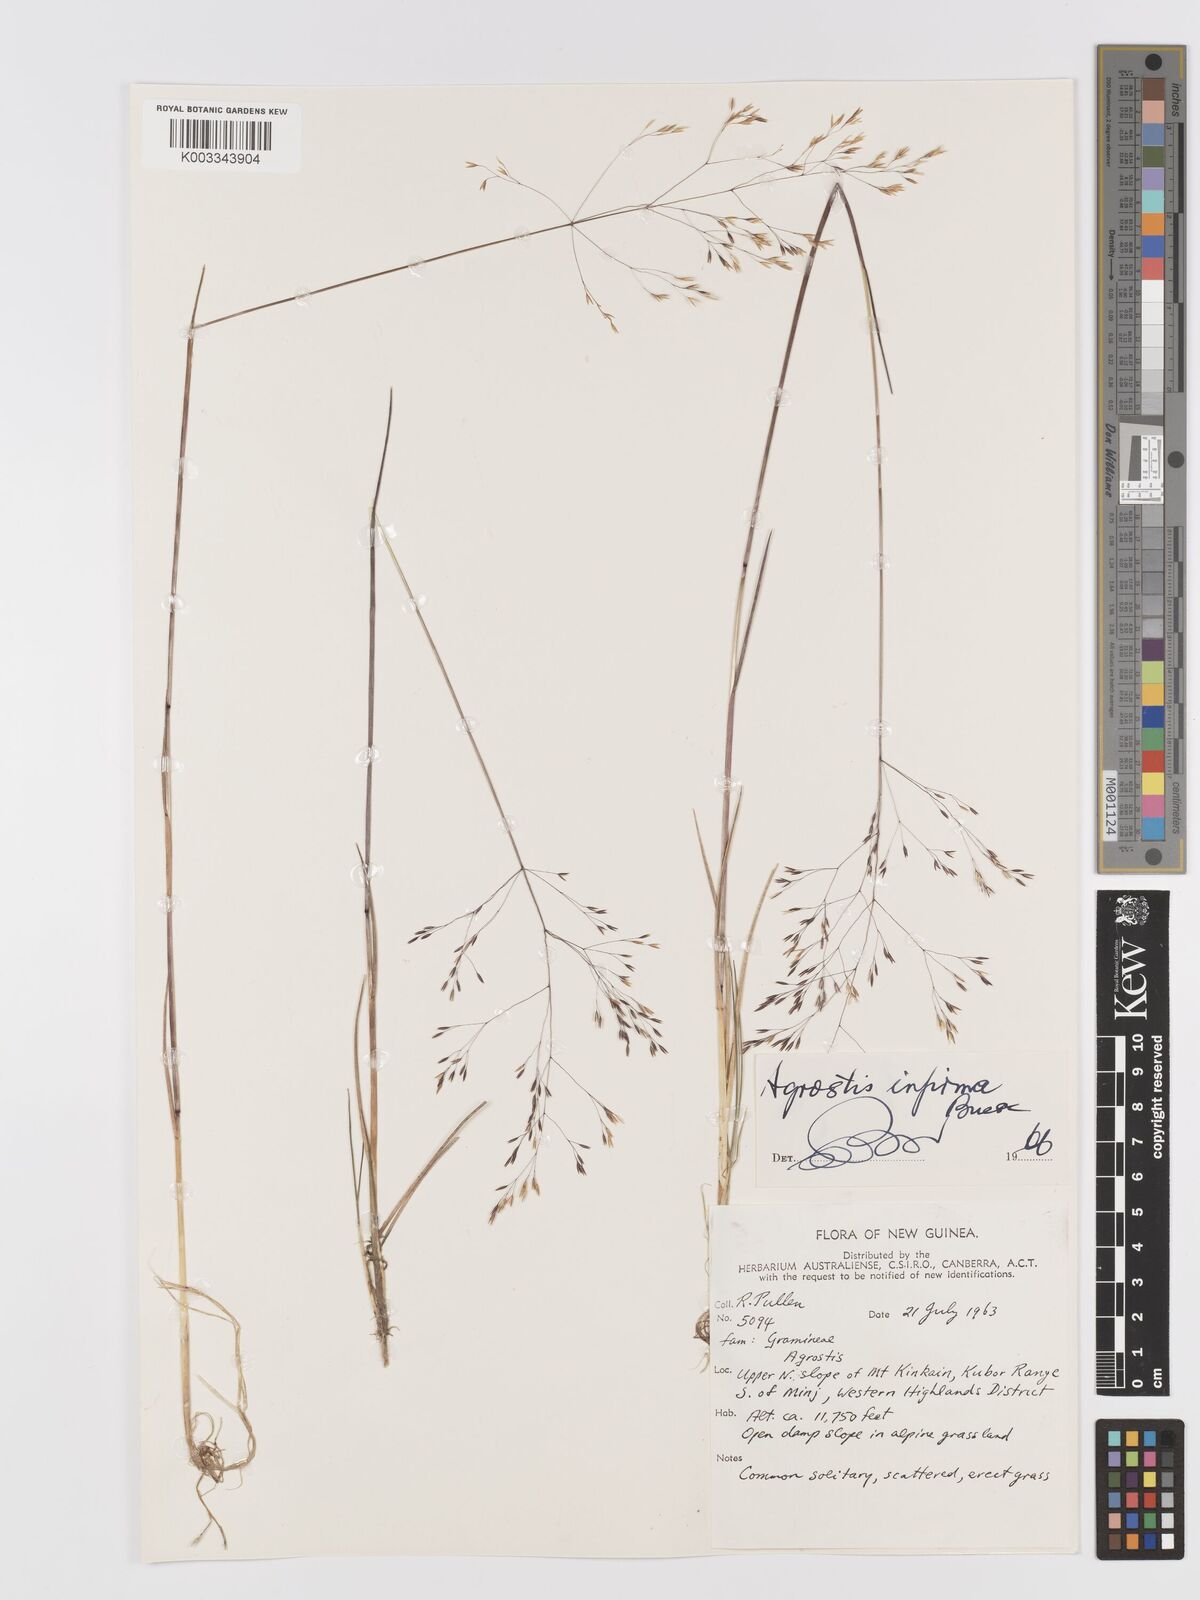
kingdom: Plantae
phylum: Tracheophyta
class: Liliopsida
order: Poales
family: Poaceae
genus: Agrostis
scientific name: Agrostis infirma
